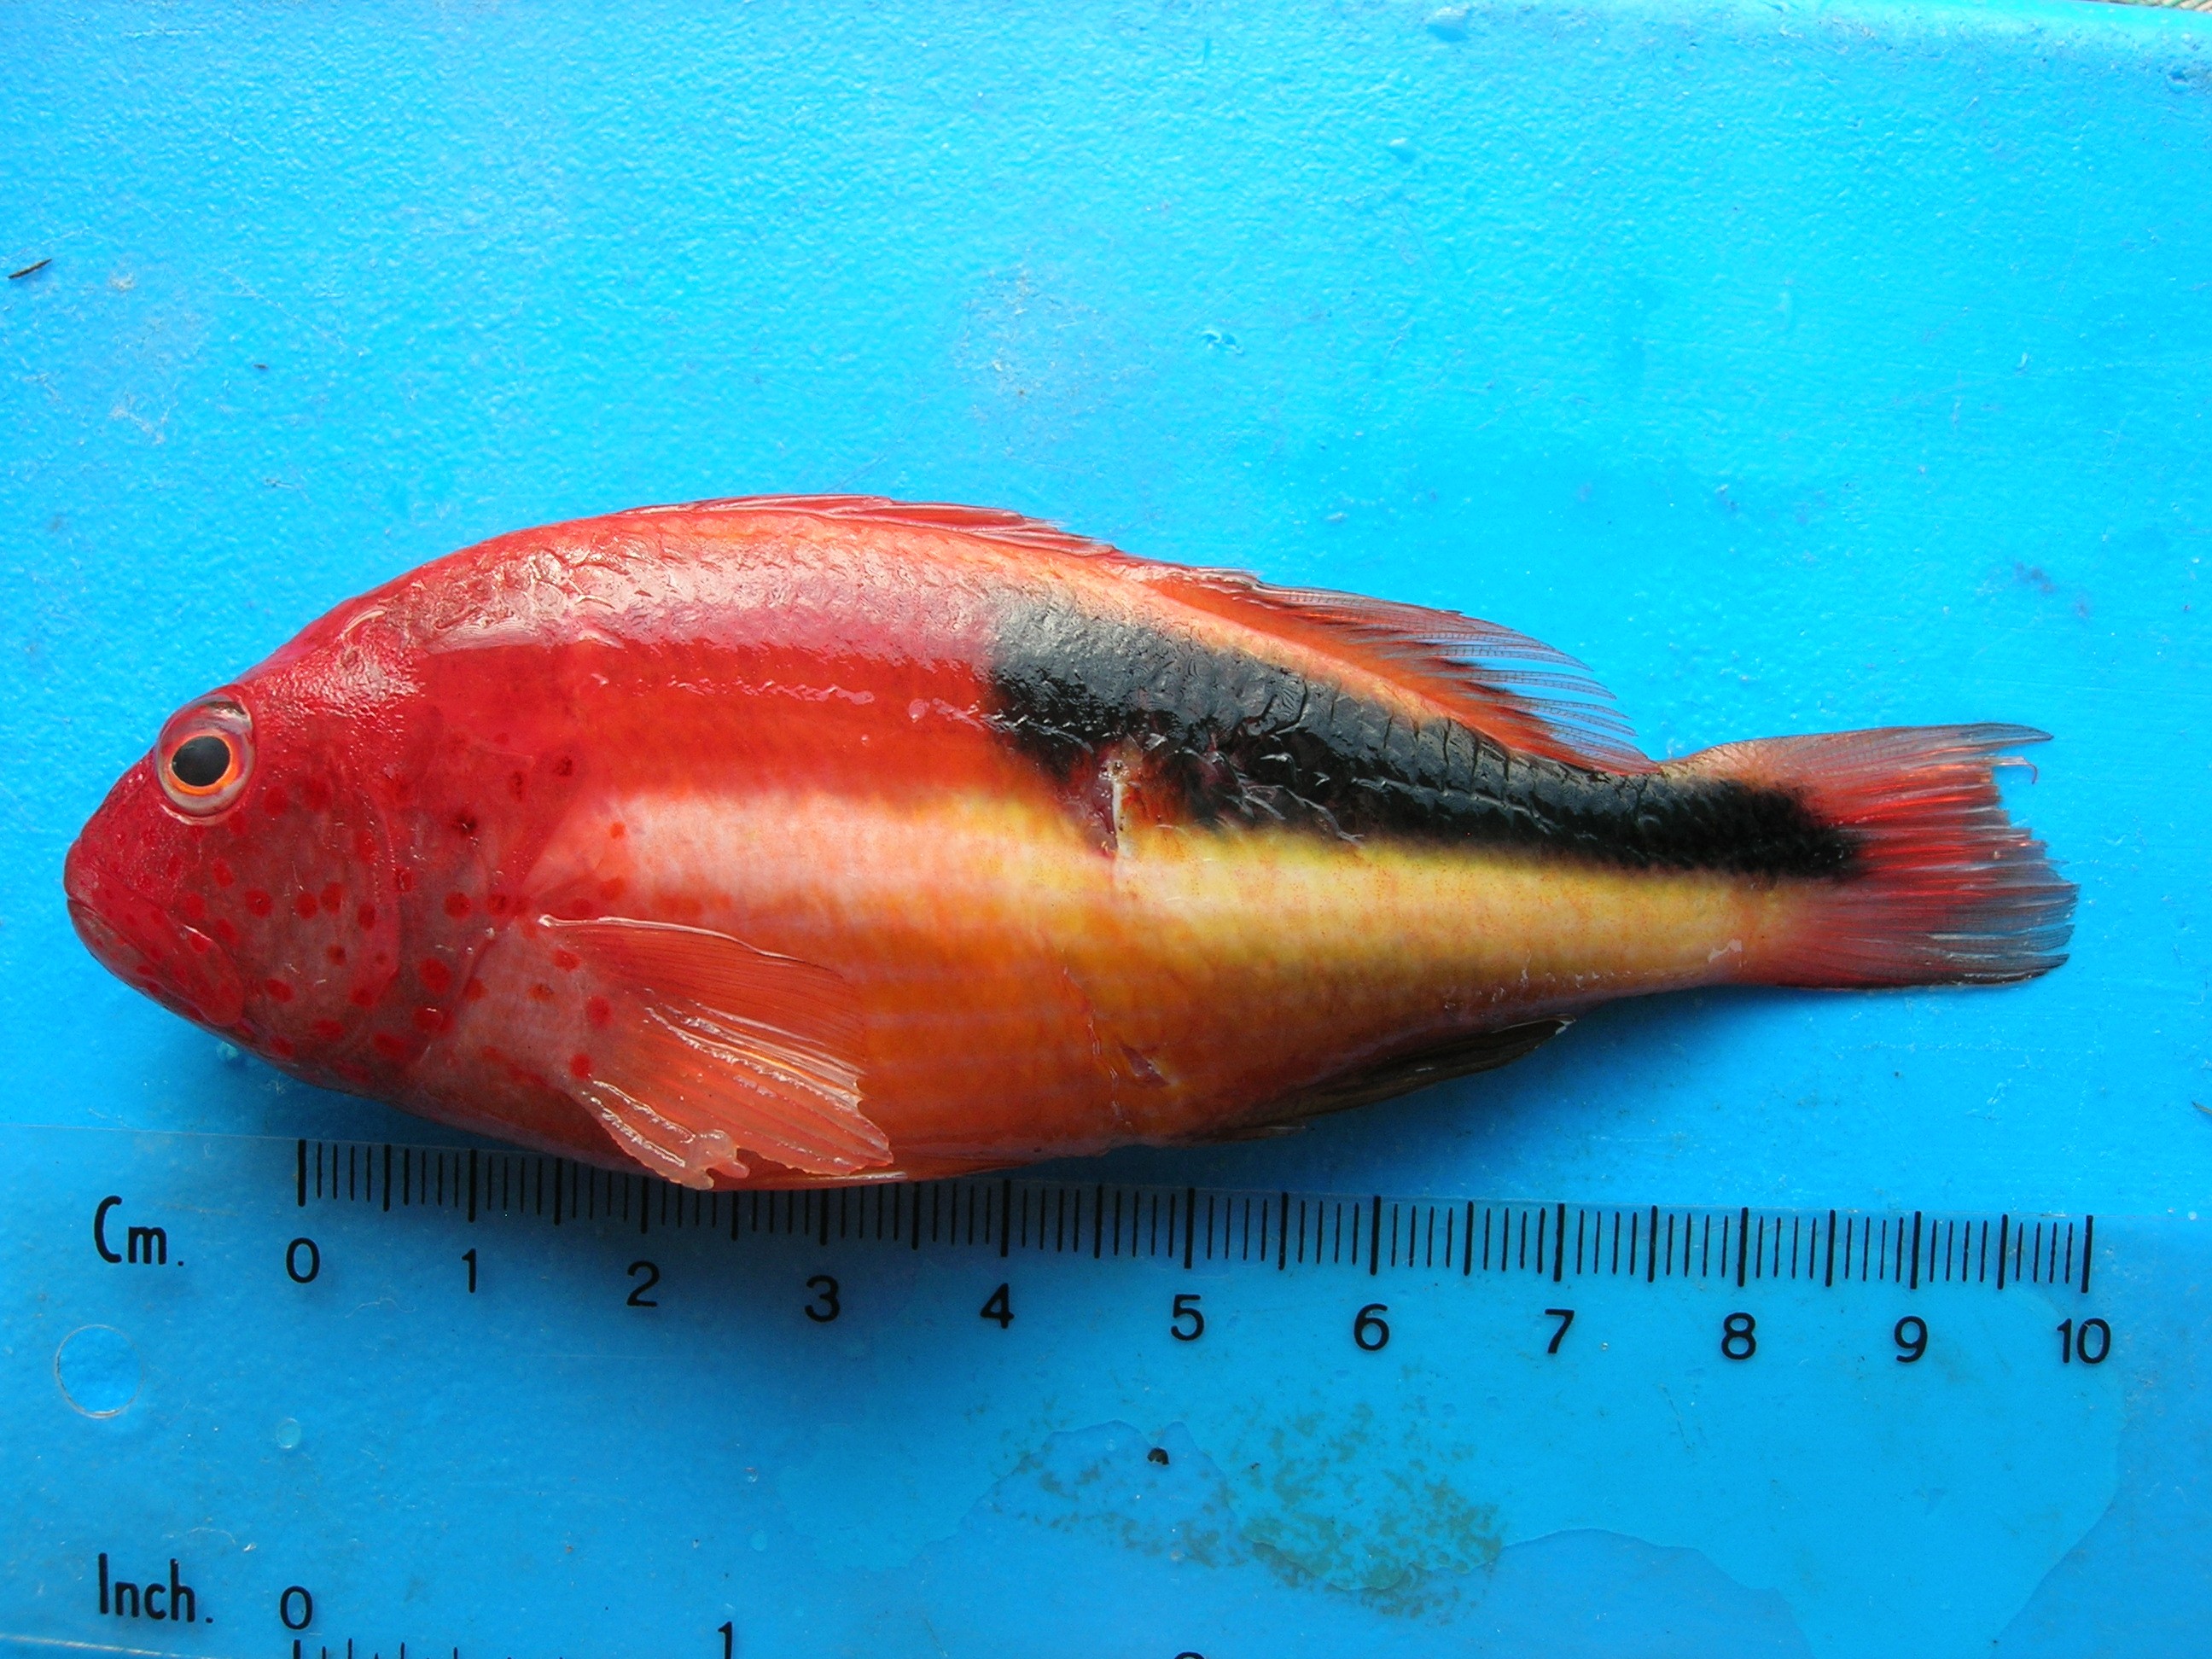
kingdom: Animalia
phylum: Chordata
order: Perciformes
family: Cirrhitidae
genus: Paracirrhites
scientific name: Paracirrhites forsteri
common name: Freckled hawkfish
